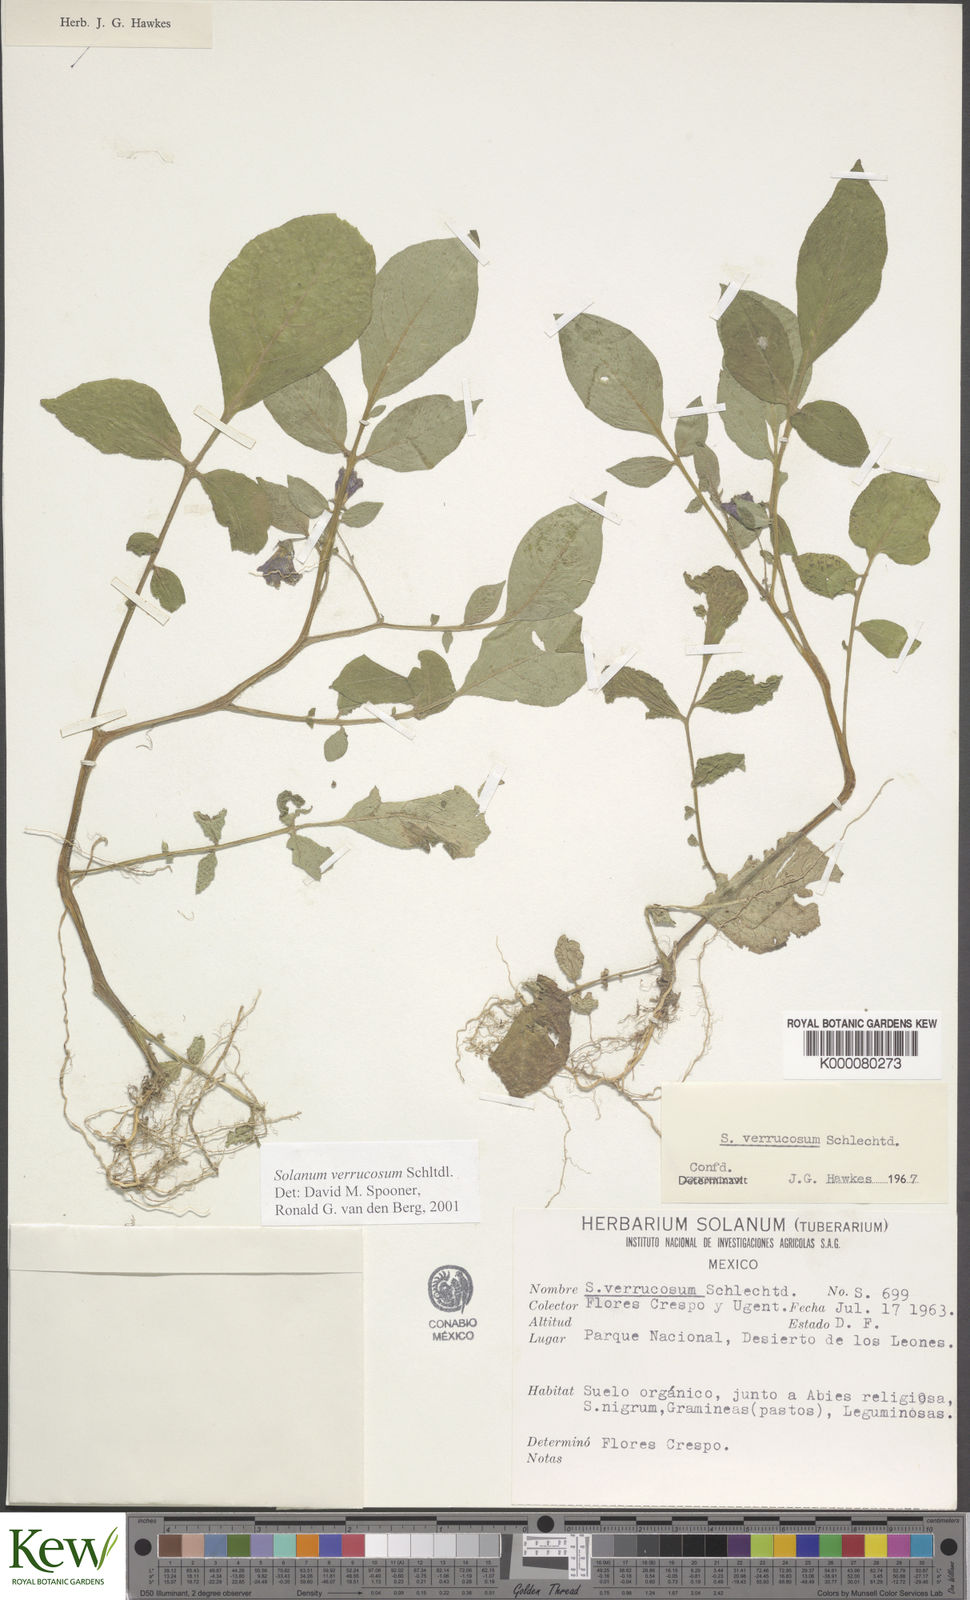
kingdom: Plantae
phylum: Tracheophyta
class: Magnoliopsida
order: Solanales
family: Solanaceae
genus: Solanum
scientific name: Solanum verrucosum
